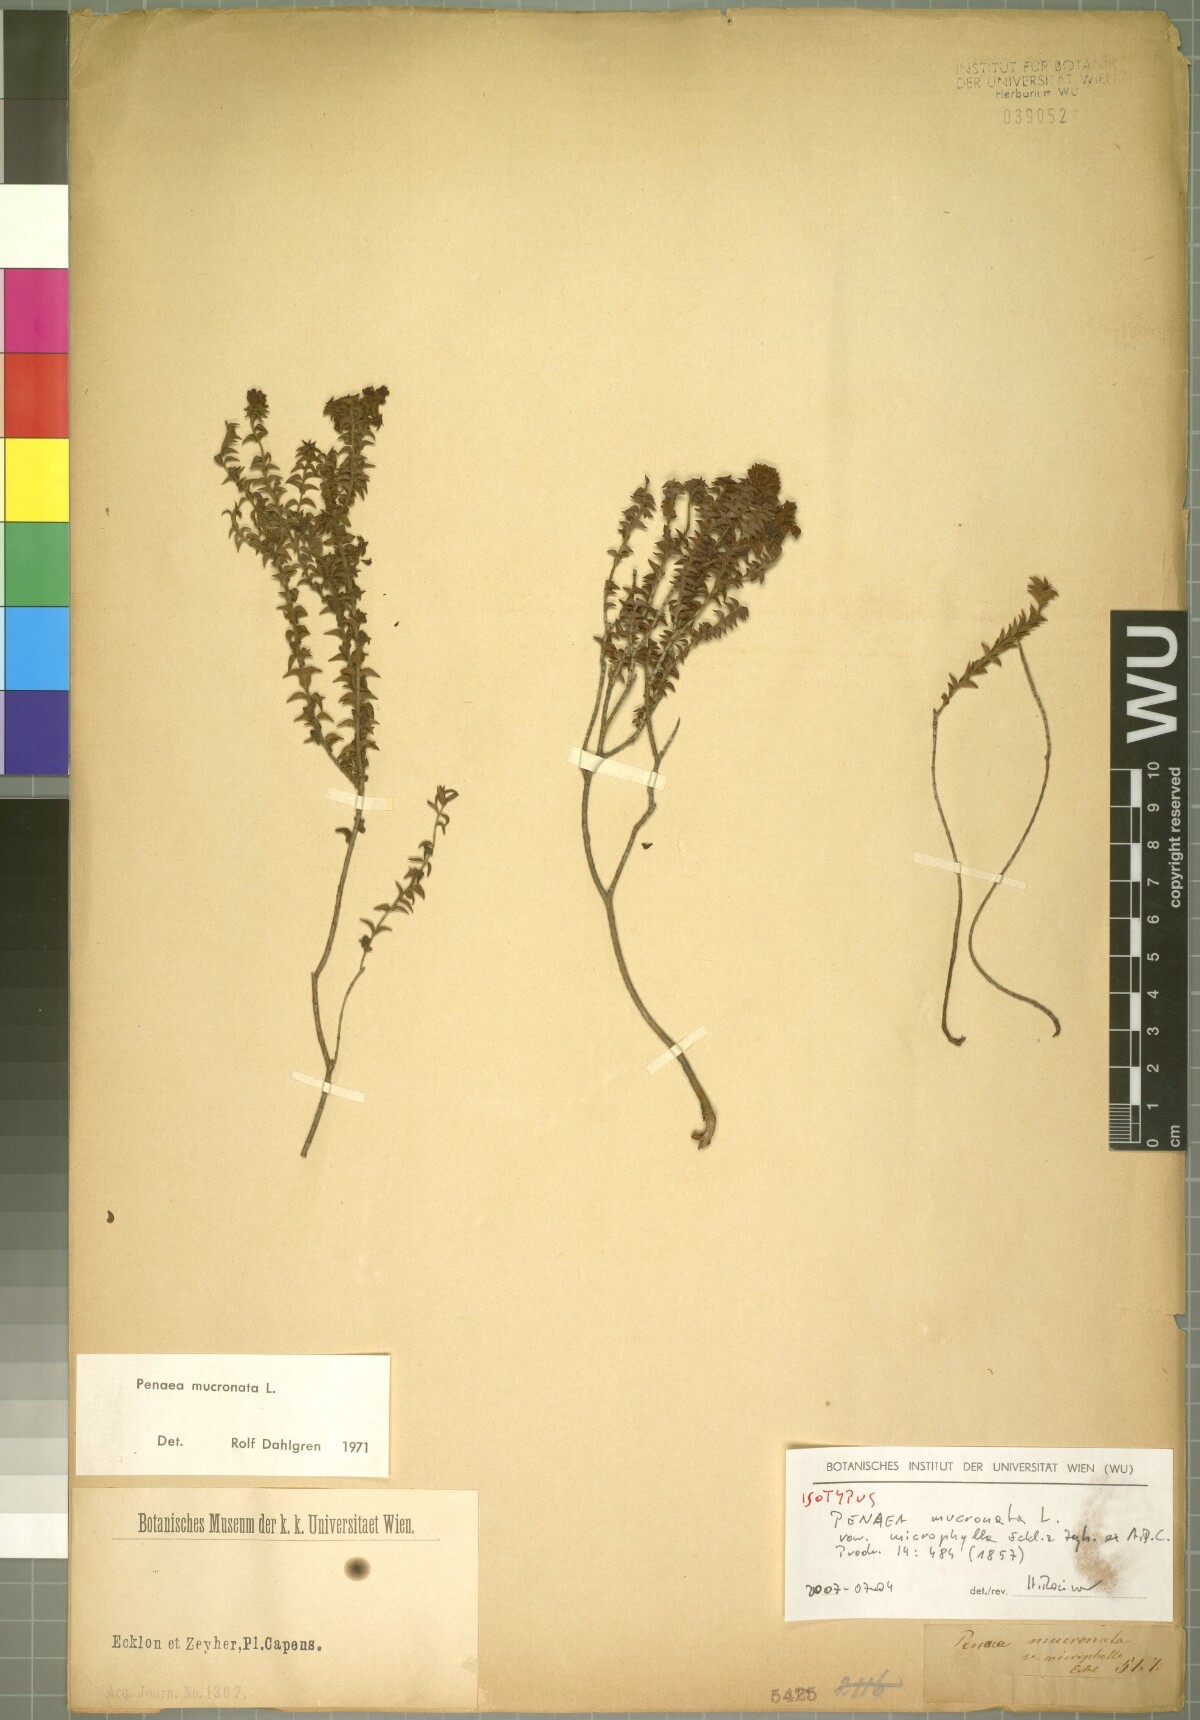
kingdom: Plantae
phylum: Tracheophyta
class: Magnoliopsida
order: Myrtales
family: Penaeaceae
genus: Penaea
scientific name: Penaea mucronata
